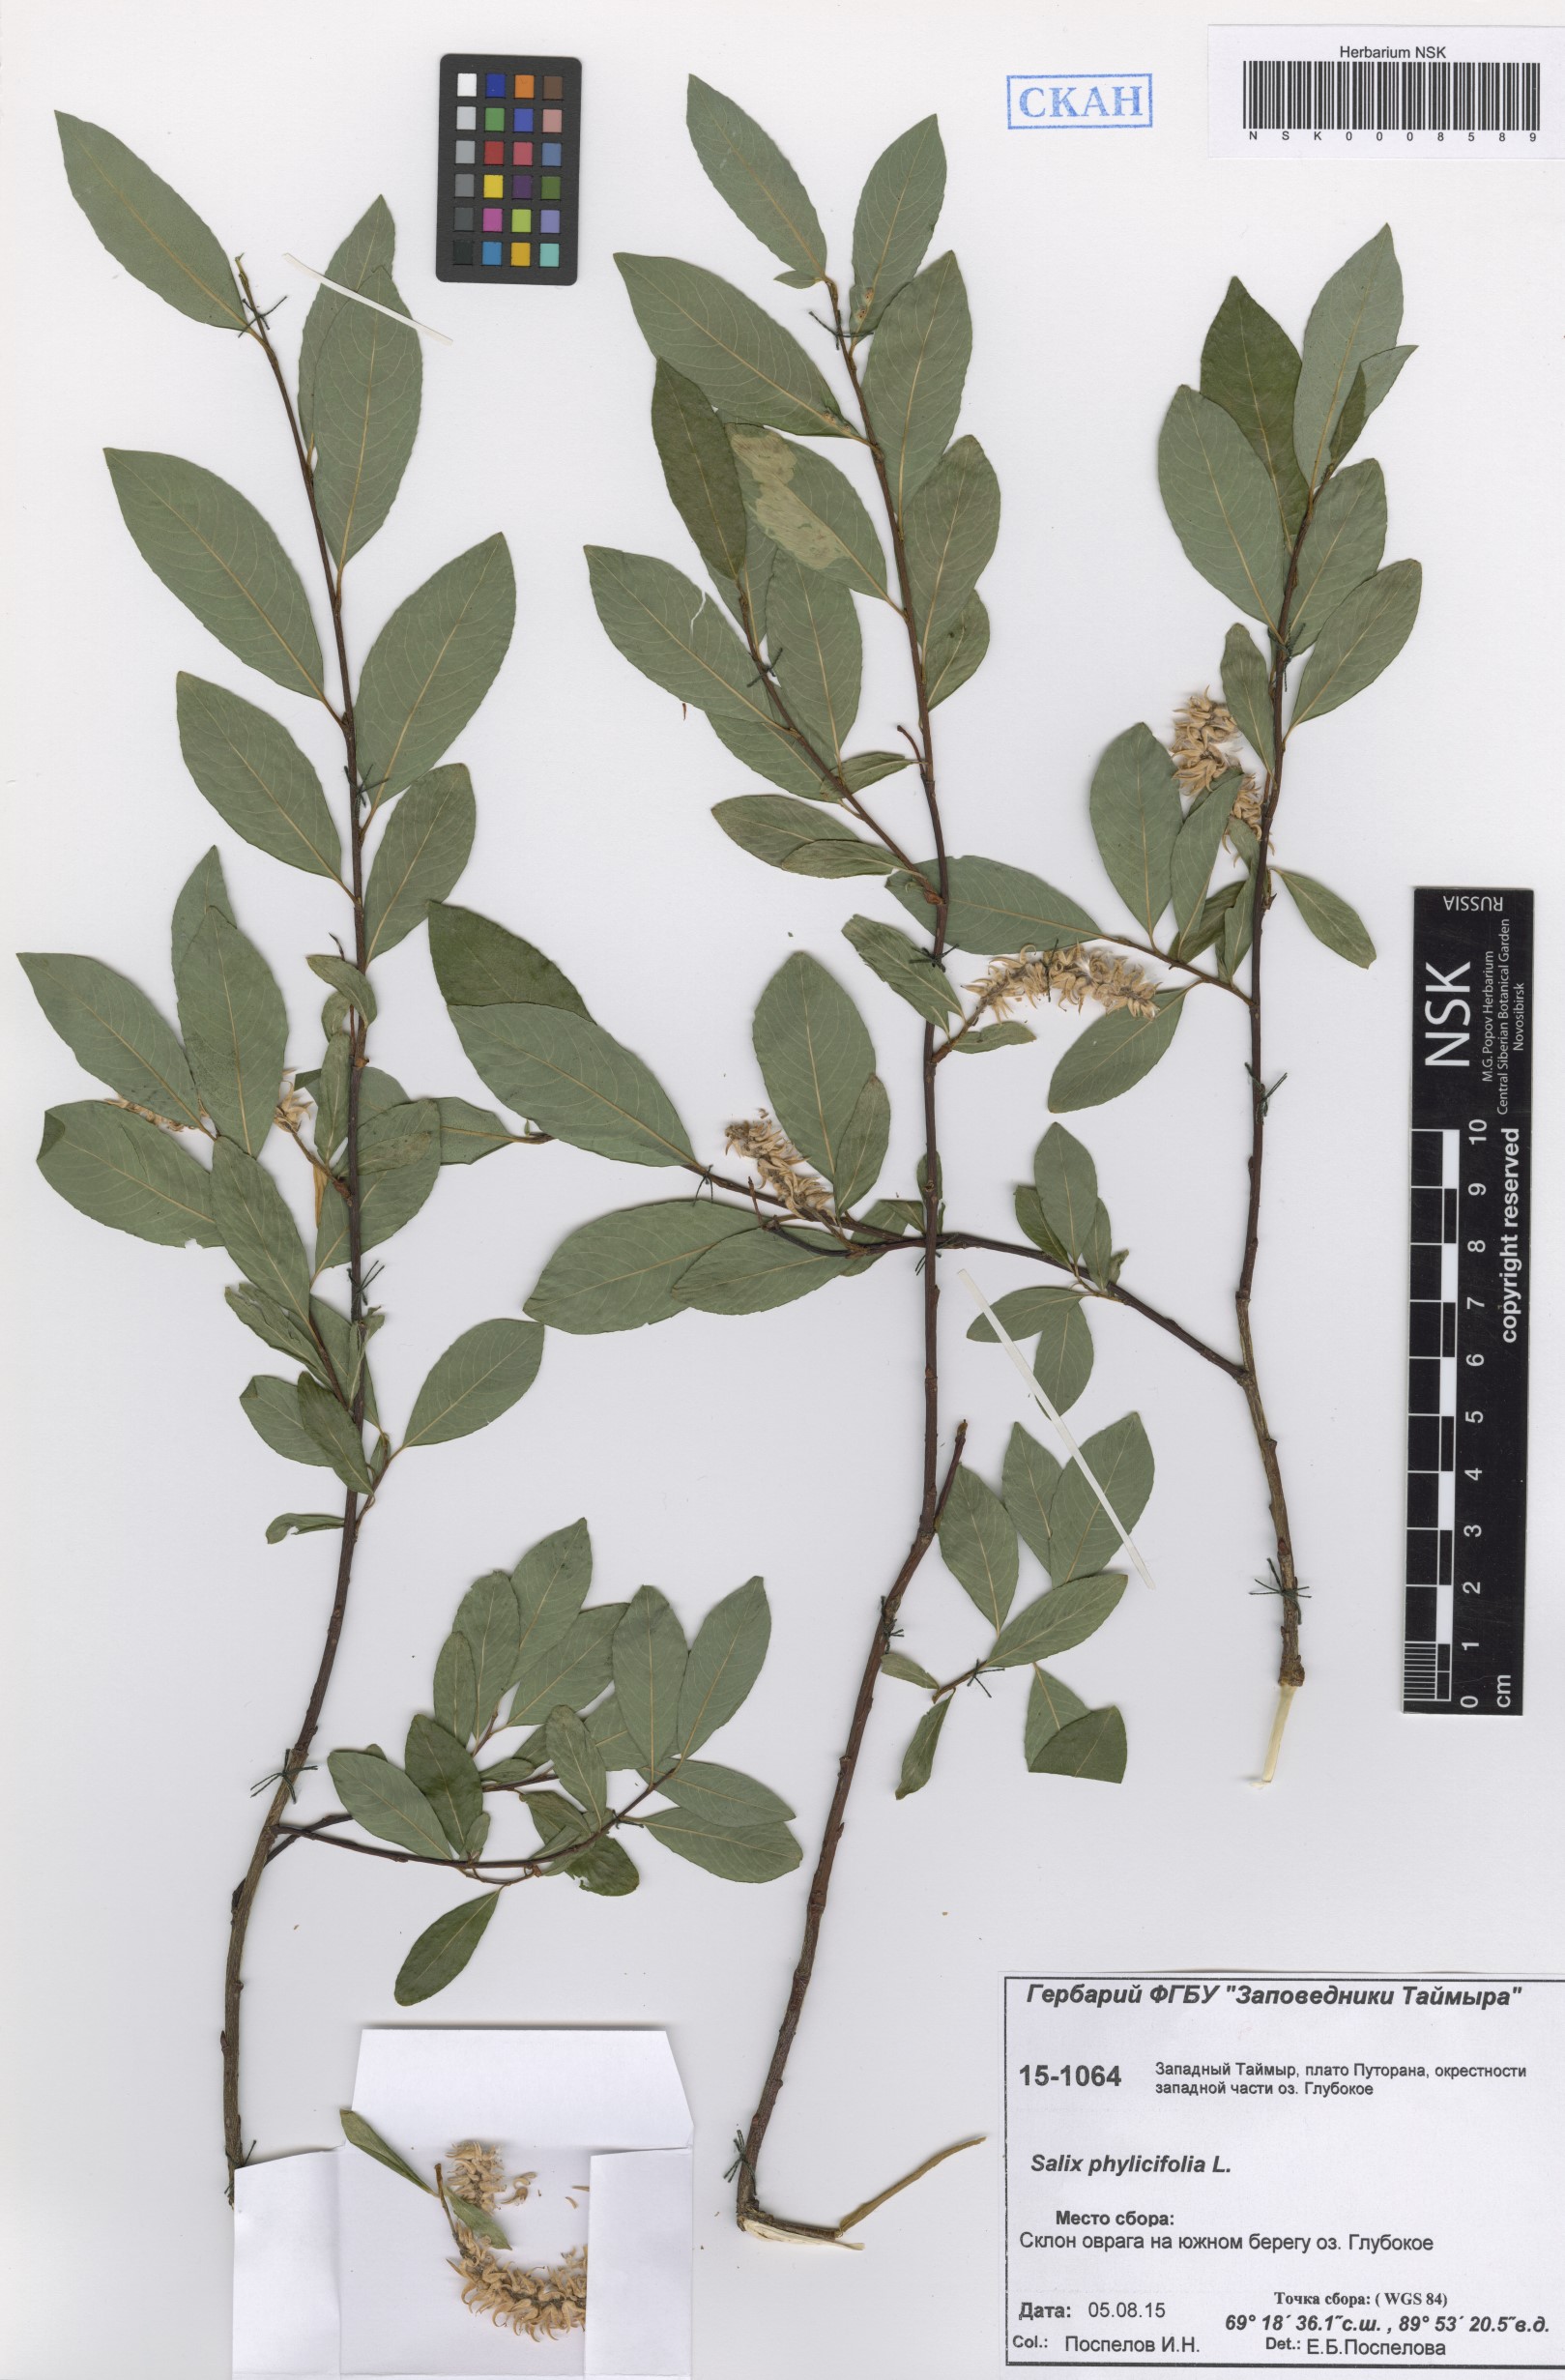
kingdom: Plantae
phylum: Tracheophyta
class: Magnoliopsida
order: Malpighiales
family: Salicaceae
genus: Salix
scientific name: Salix phylicifolia
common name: Tea-leaved willow
